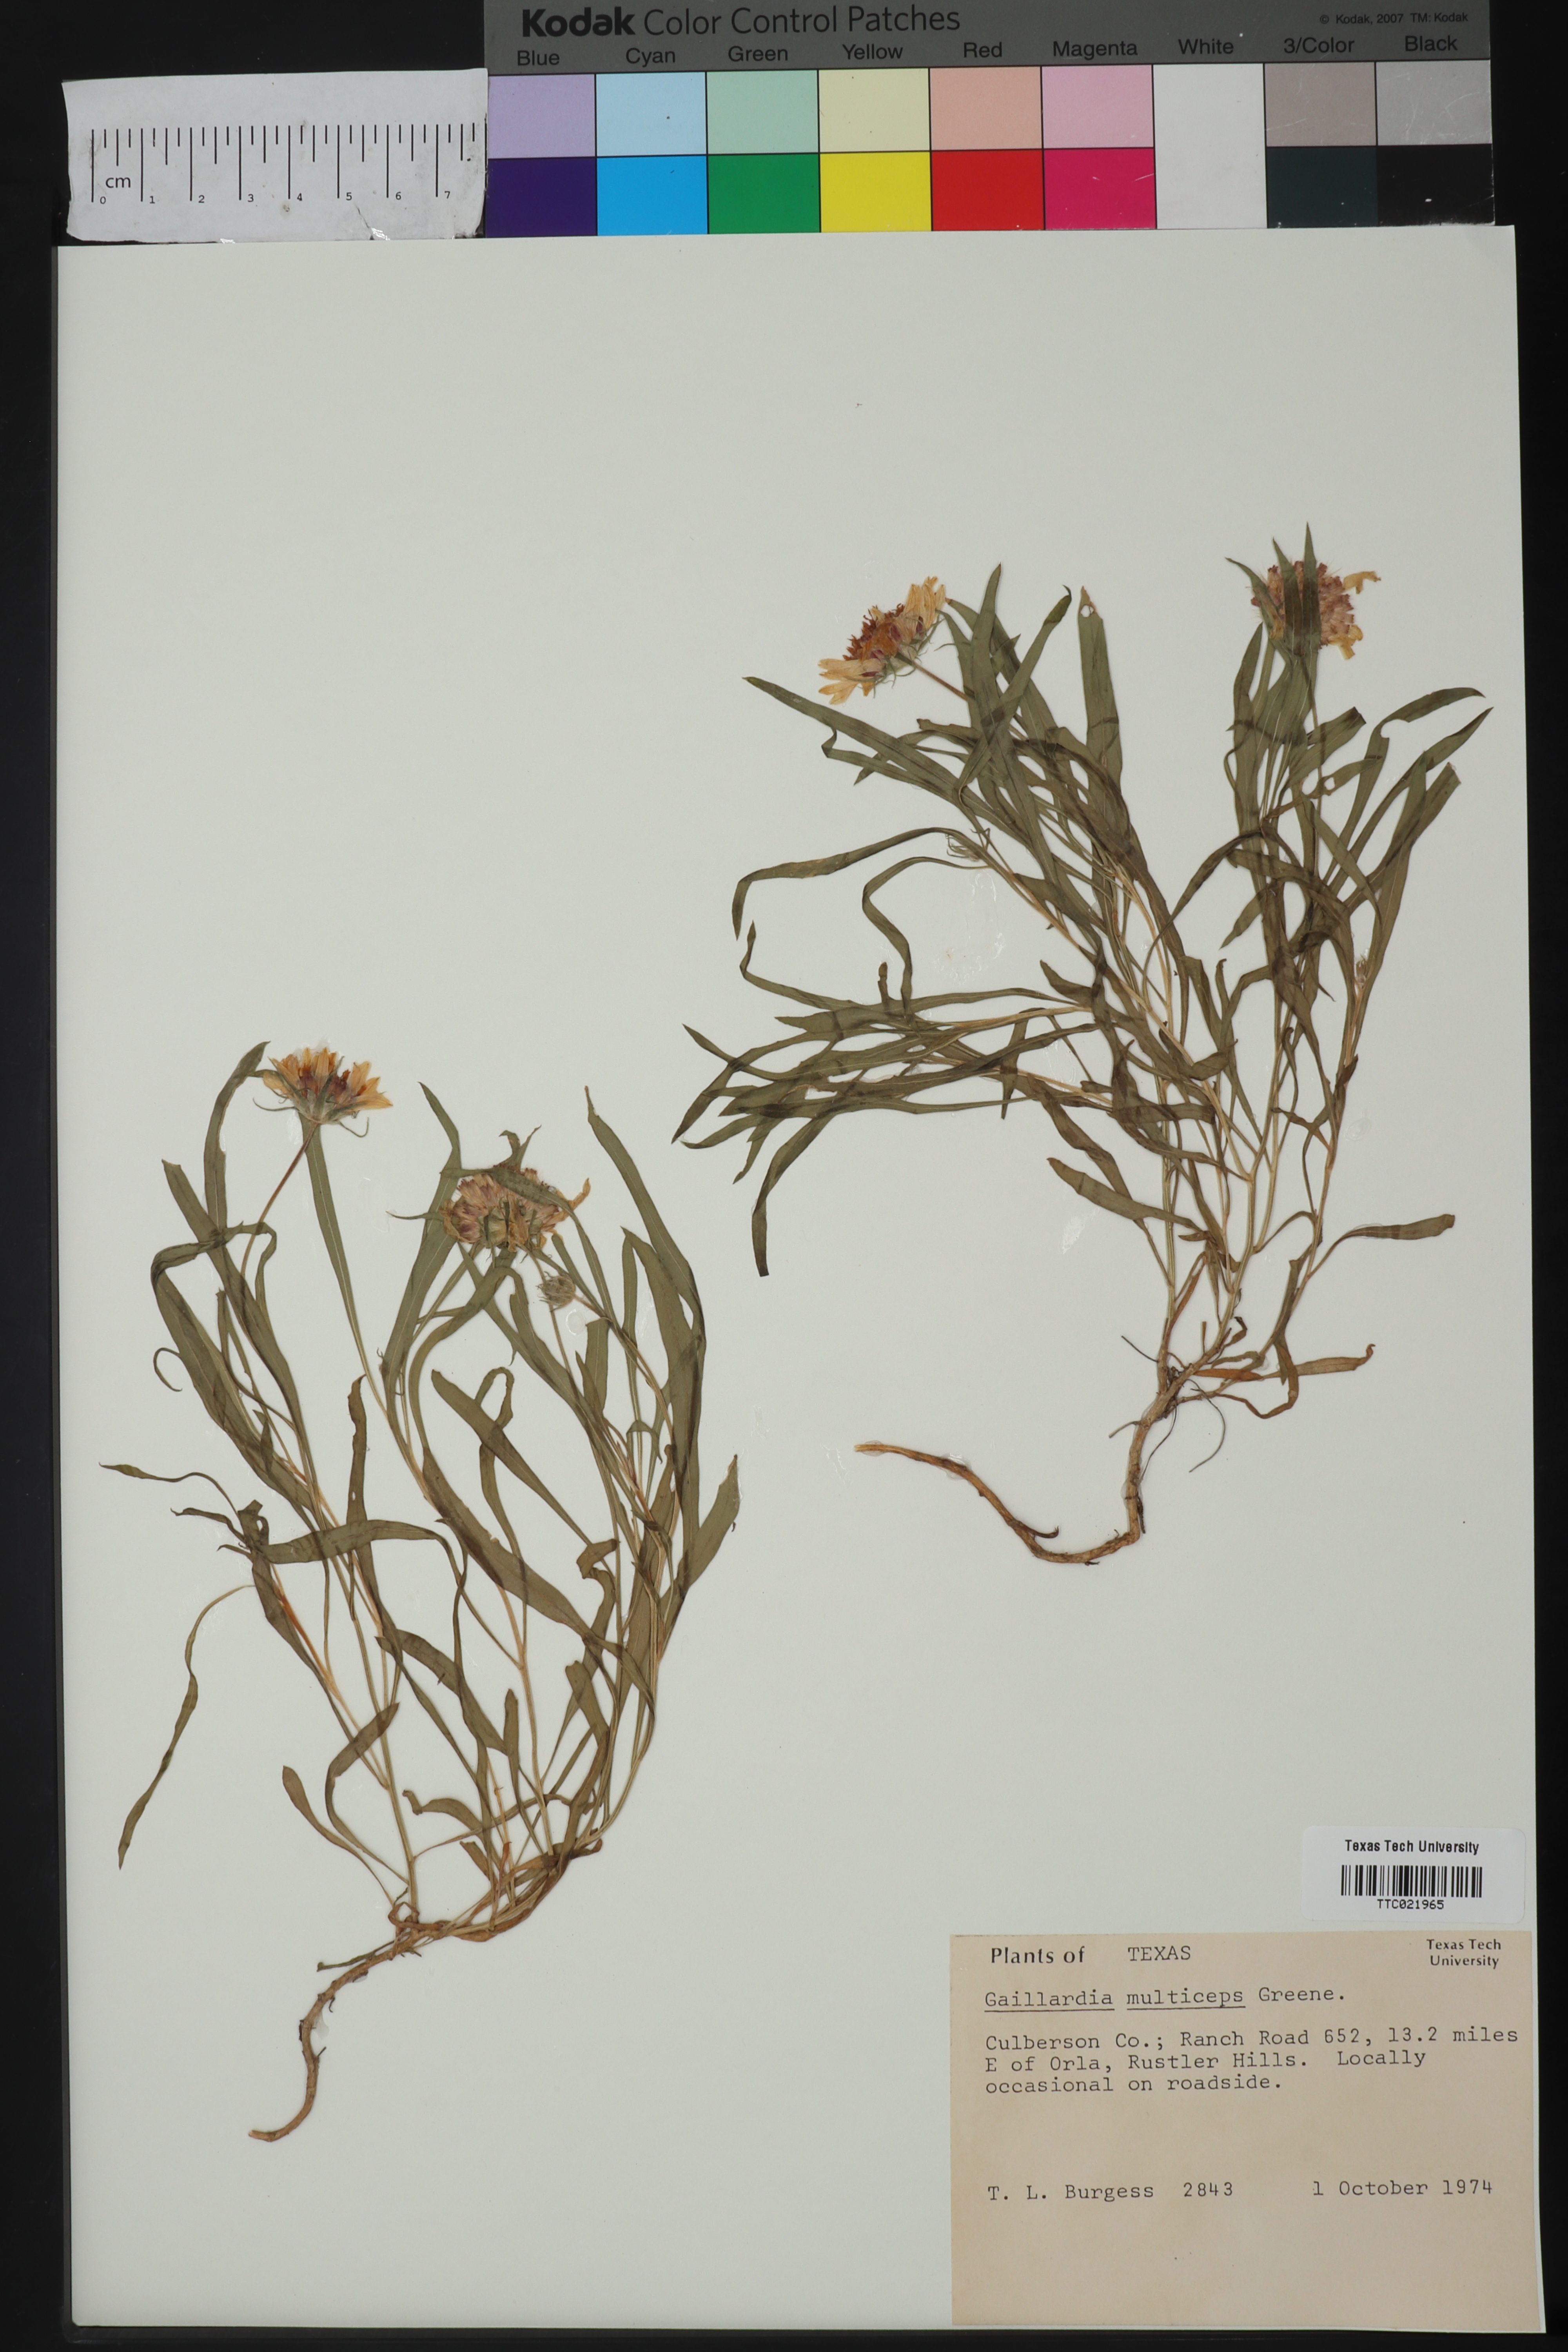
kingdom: Plantae
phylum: Tracheophyta
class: Magnoliopsida
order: Asterales
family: Asteraceae
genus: Gaillardia
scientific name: Gaillardia multiceps
